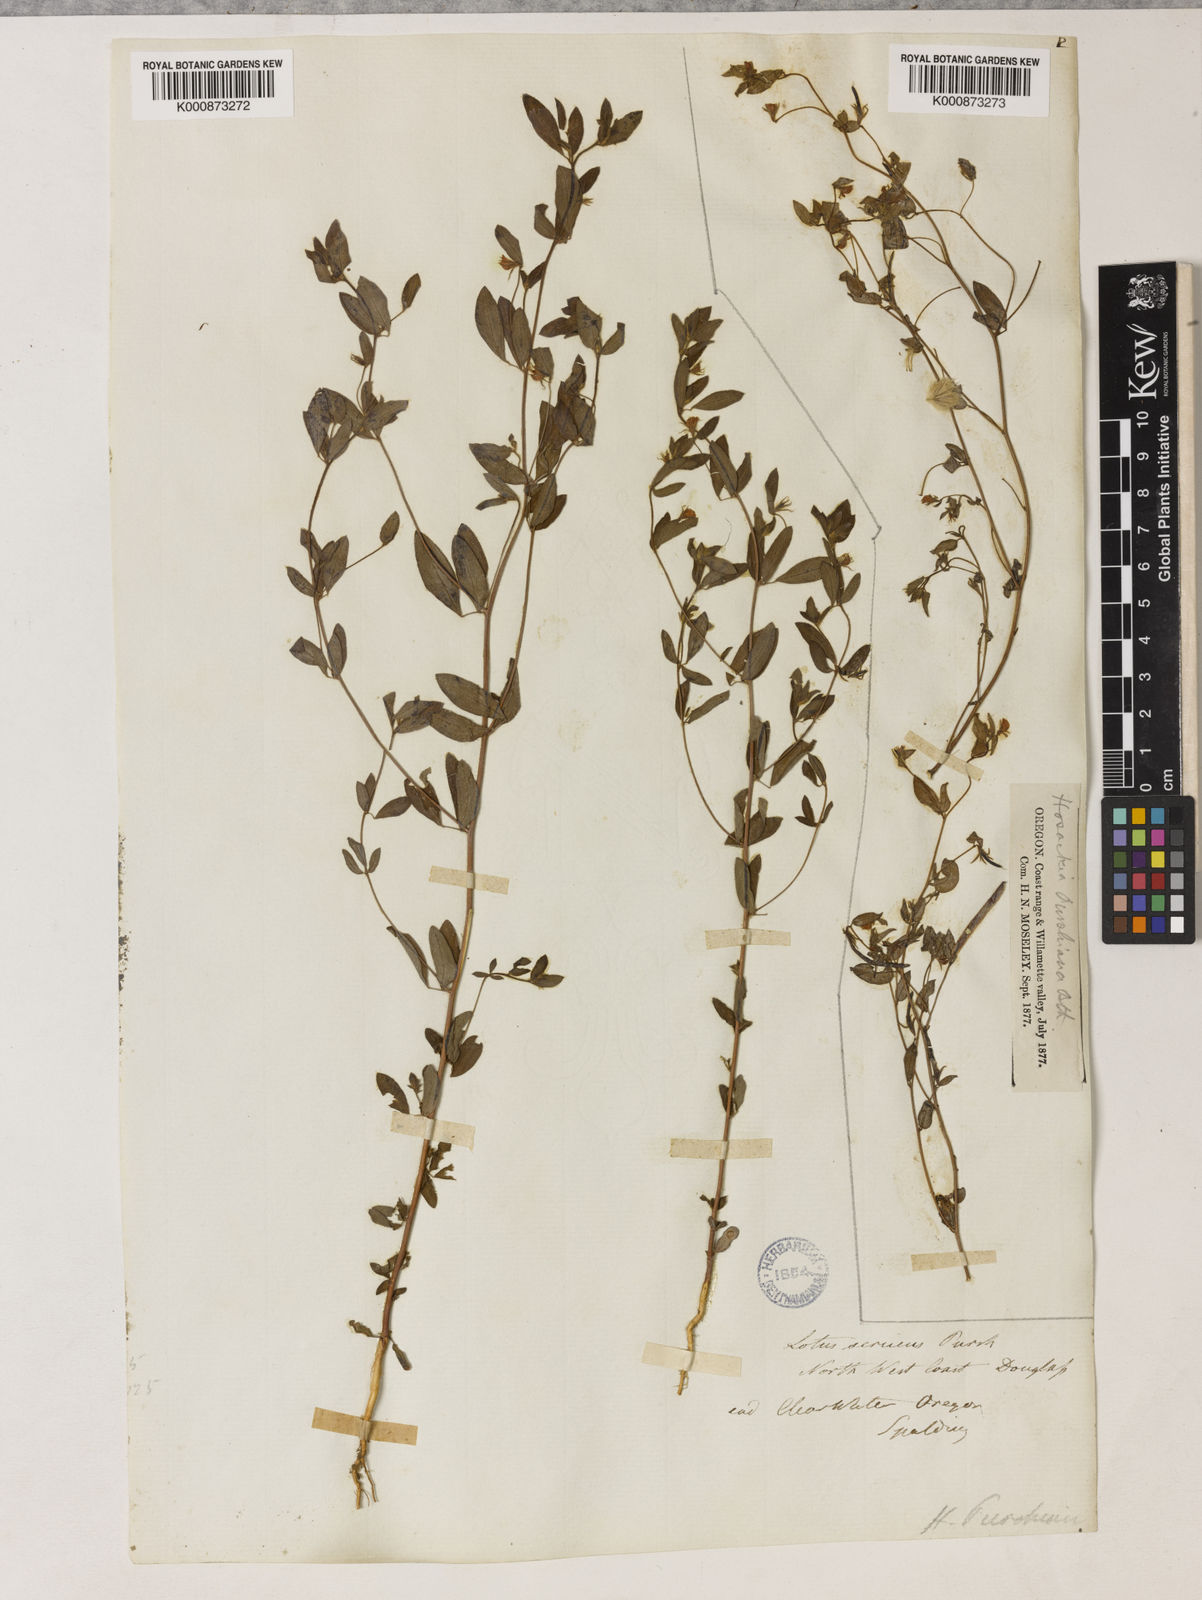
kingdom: Plantae
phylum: Tracheophyta
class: Magnoliopsida
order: Fabales
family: Fabaceae
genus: Collaea
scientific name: Collaea speciosa
